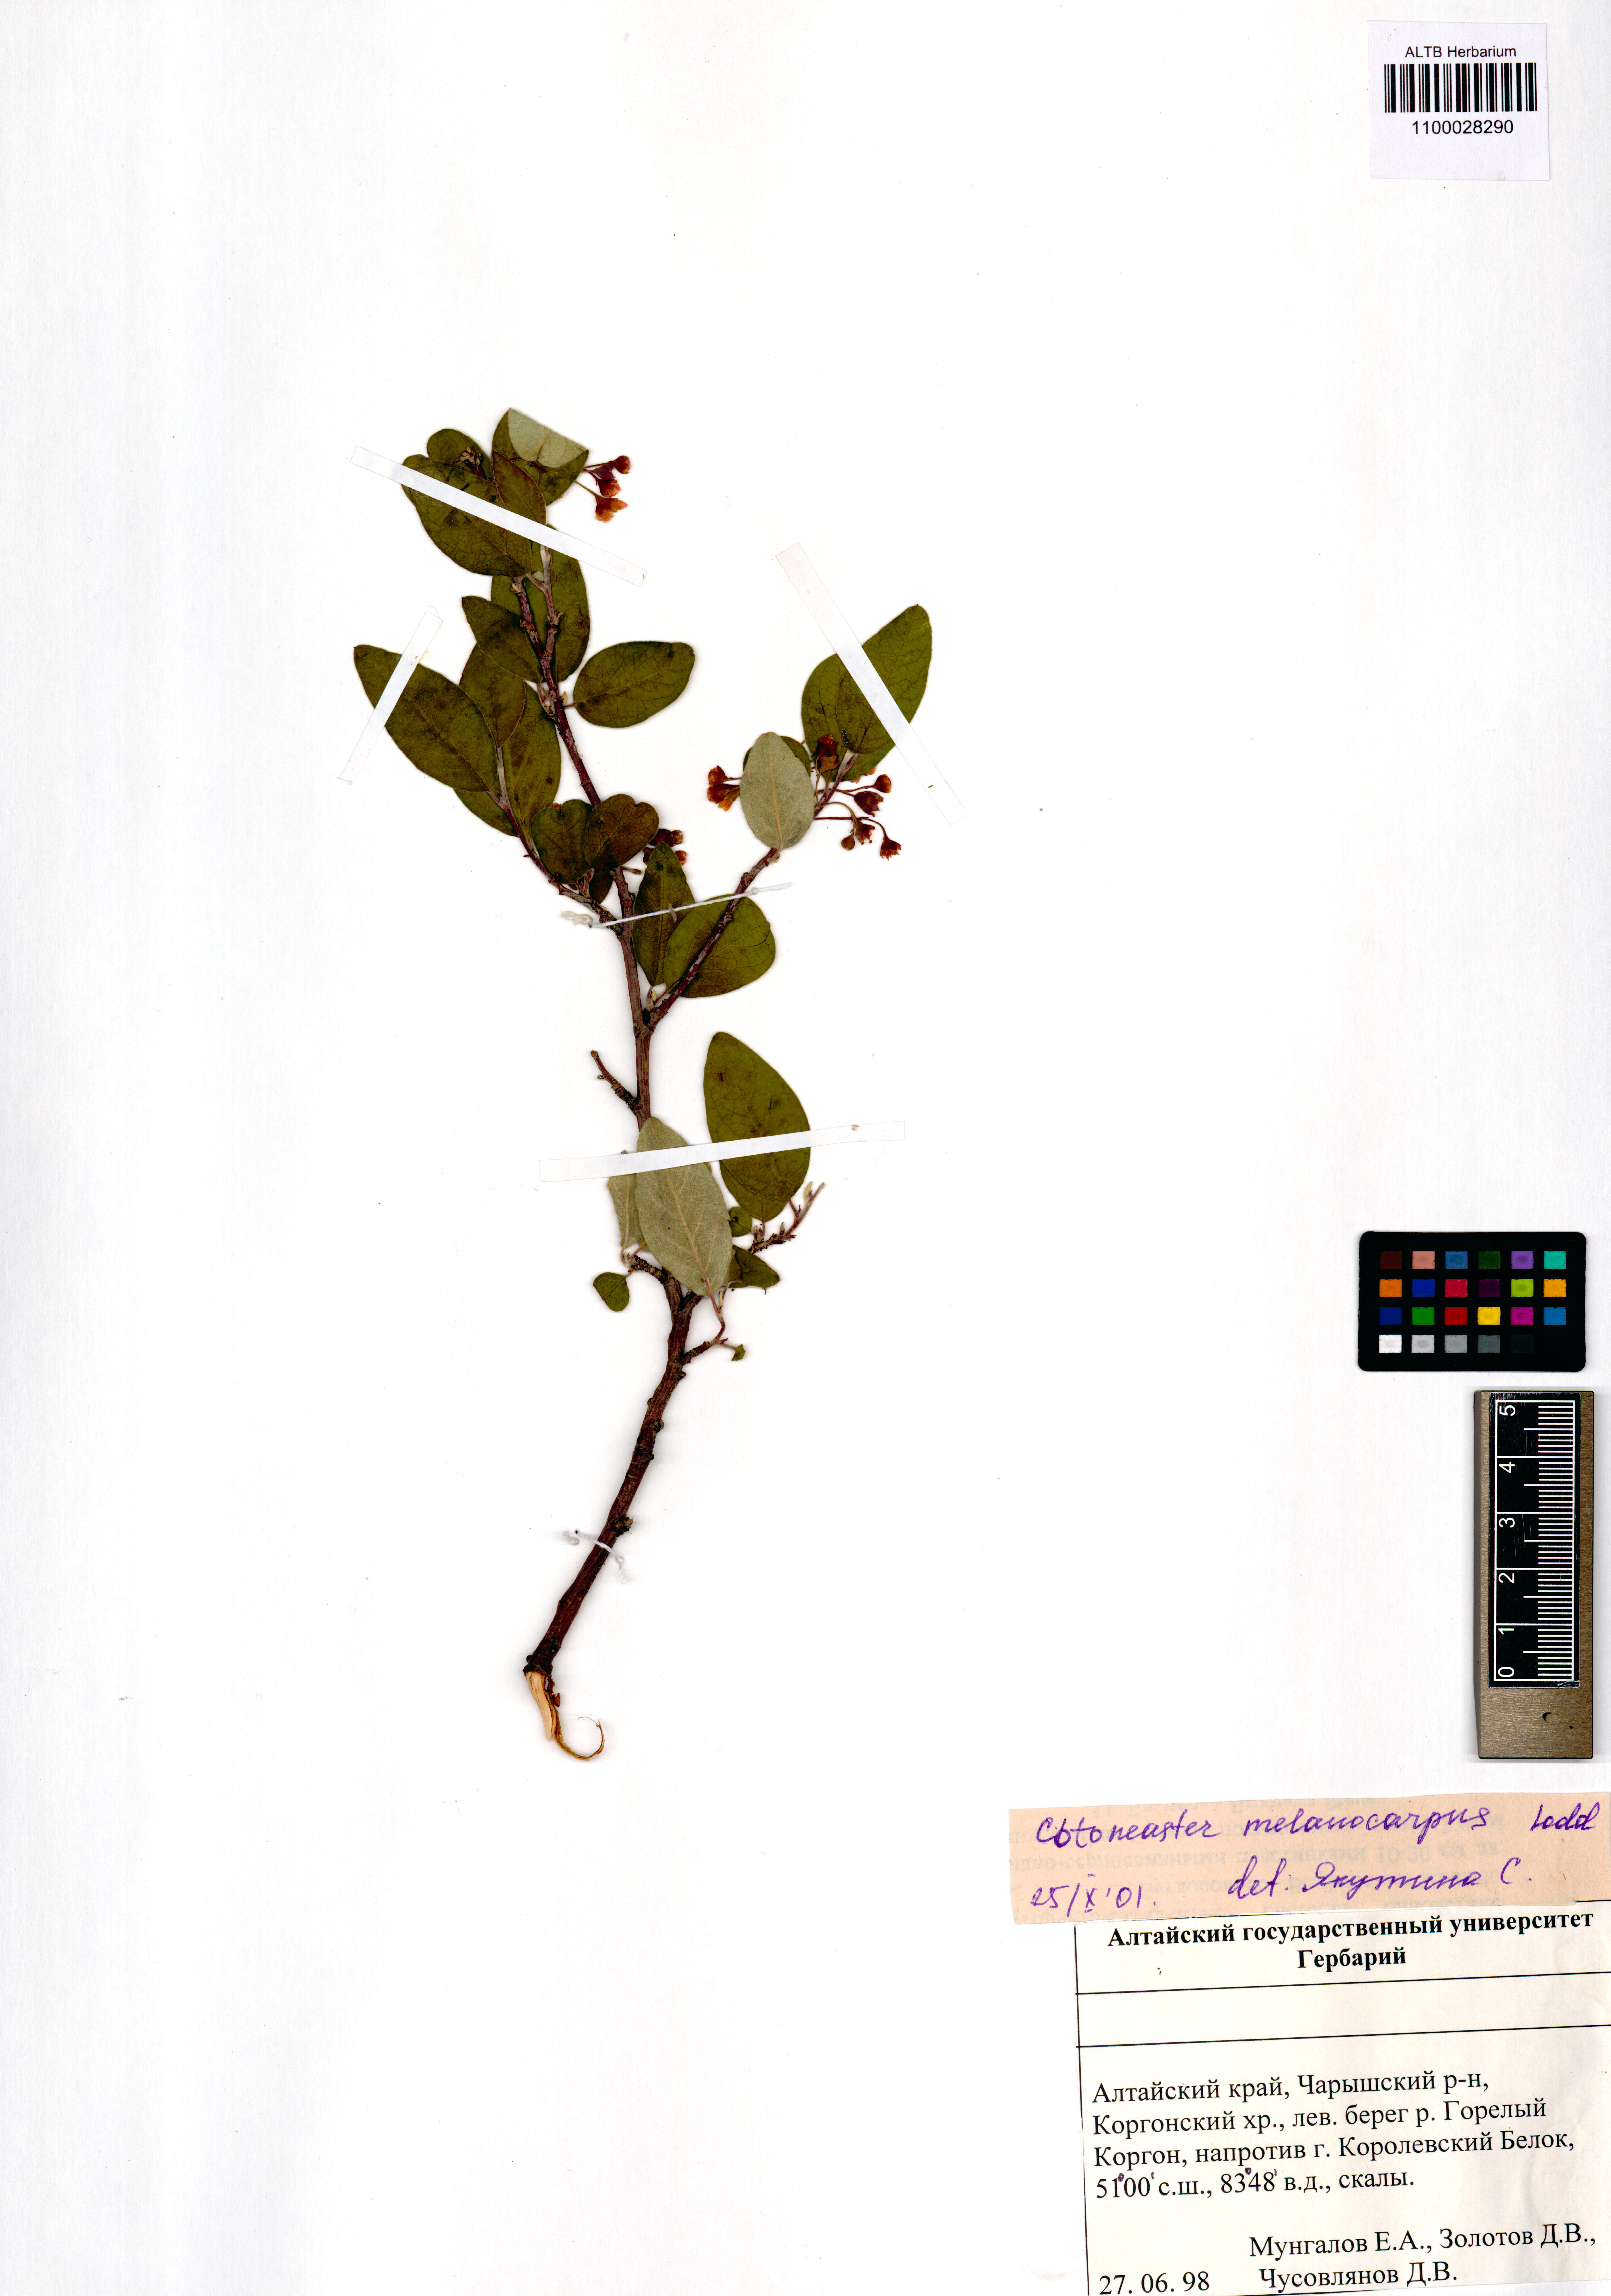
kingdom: Plantae
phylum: Tracheophyta
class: Magnoliopsida
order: Rosales
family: Rosaceae
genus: Cotoneaster
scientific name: Cotoneaster laxiflorus
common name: Black-fruit cotoneaster
